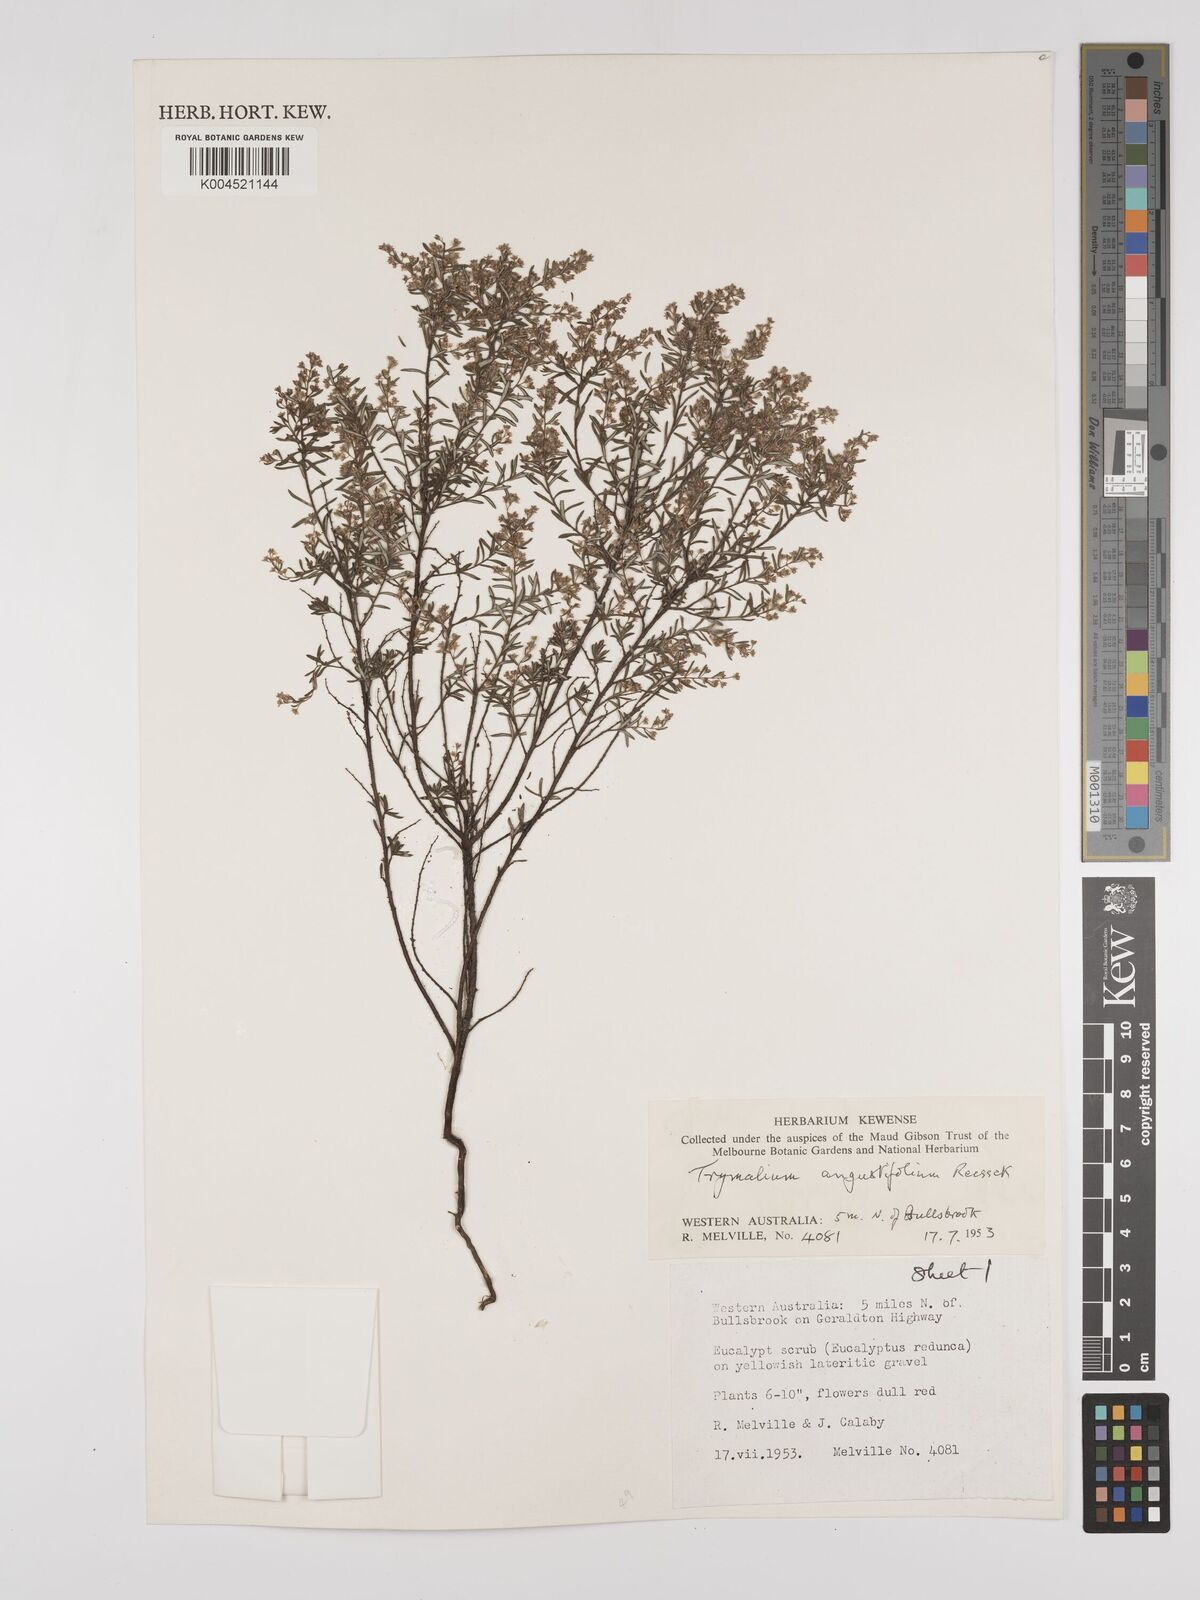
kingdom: Plantae
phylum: Tracheophyta
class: Magnoliopsida
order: Rosales
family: Rhamnaceae
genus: Trymalium
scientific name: Trymalium angustifolium
